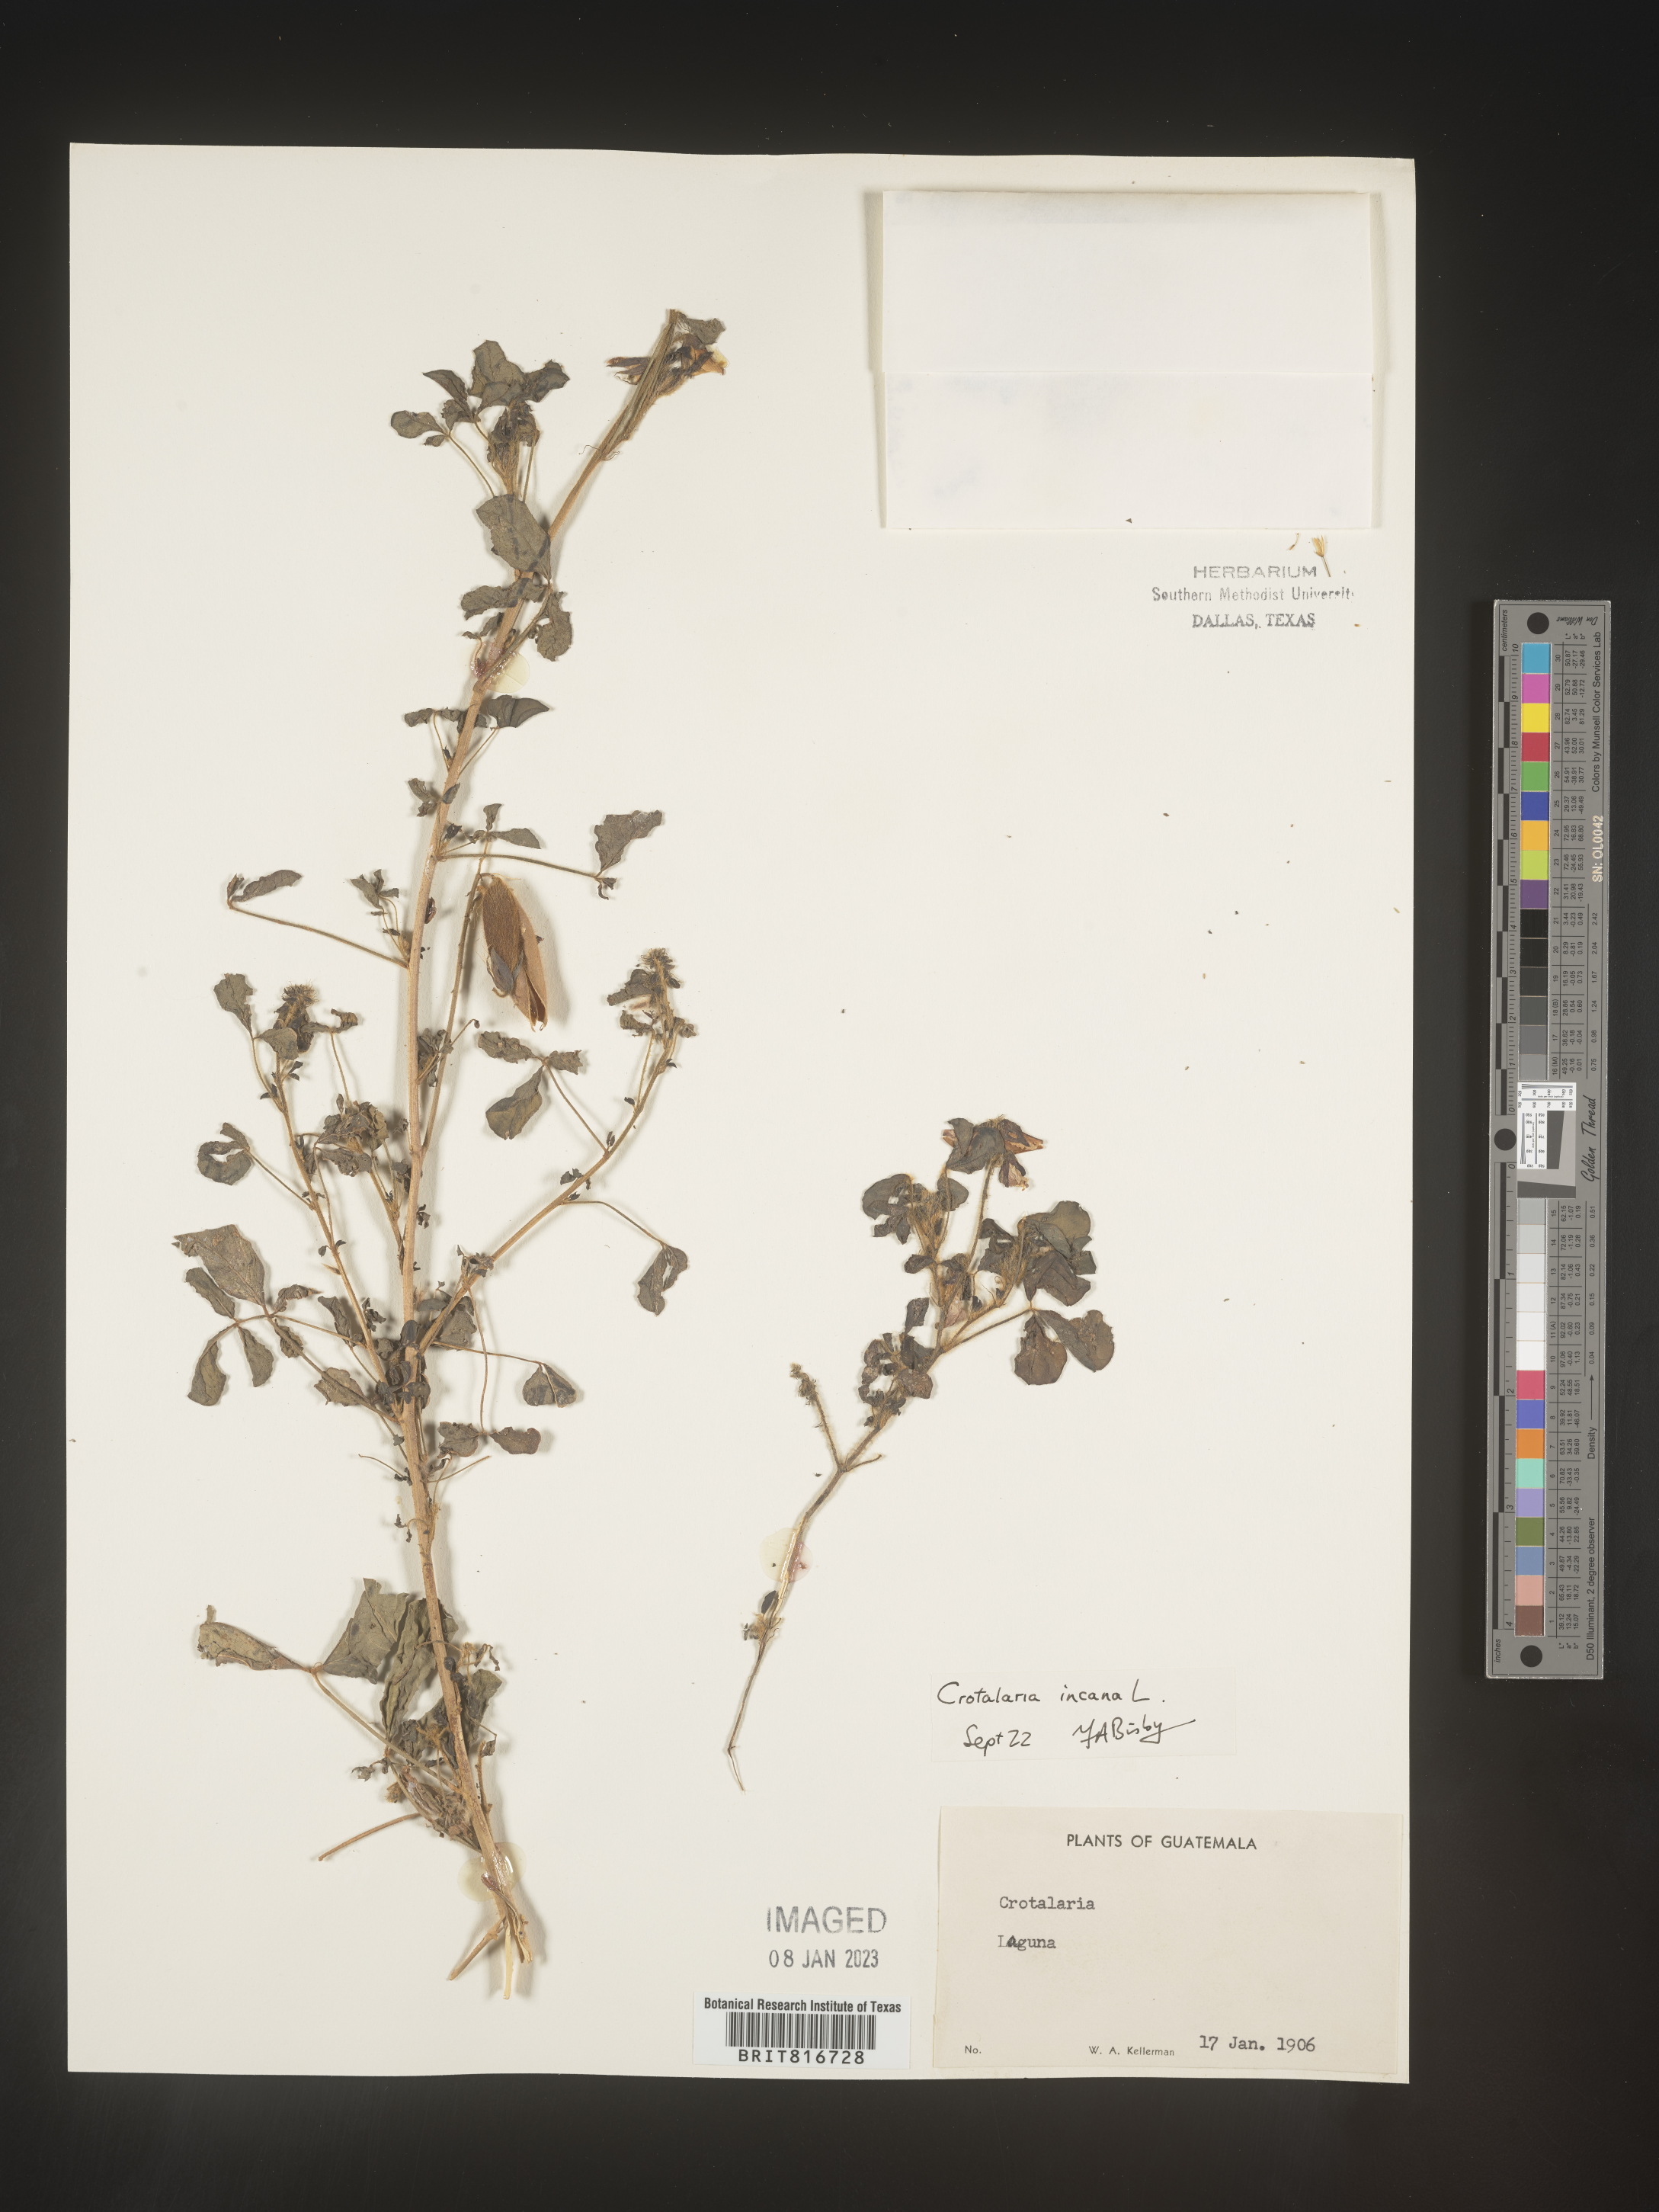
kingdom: Plantae
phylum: Tracheophyta
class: Magnoliopsida
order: Fabales
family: Fabaceae
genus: Crotalaria
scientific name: Crotalaria
